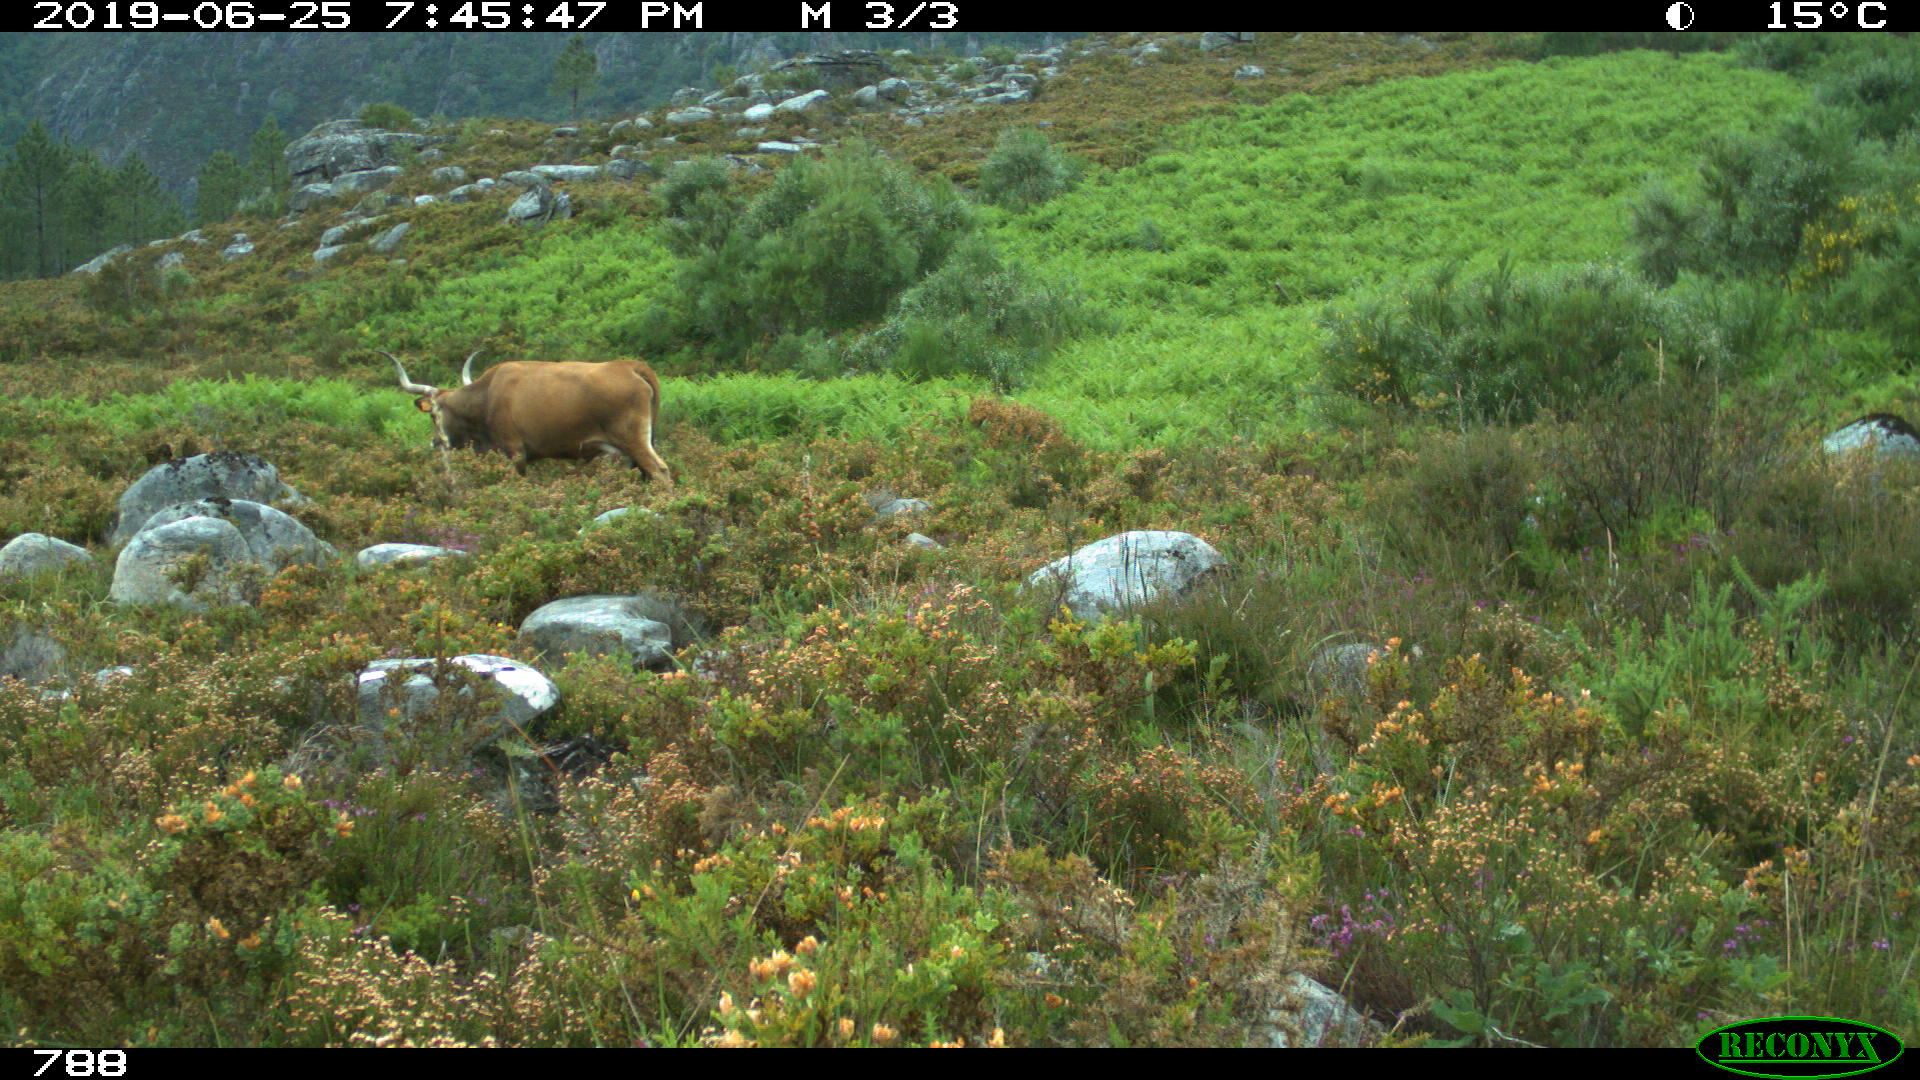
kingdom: Animalia
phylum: Chordata
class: Mammalia
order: Artiodactyla
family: Bovidae
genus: Bos
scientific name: Bos taurus
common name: Domesticated cattle
